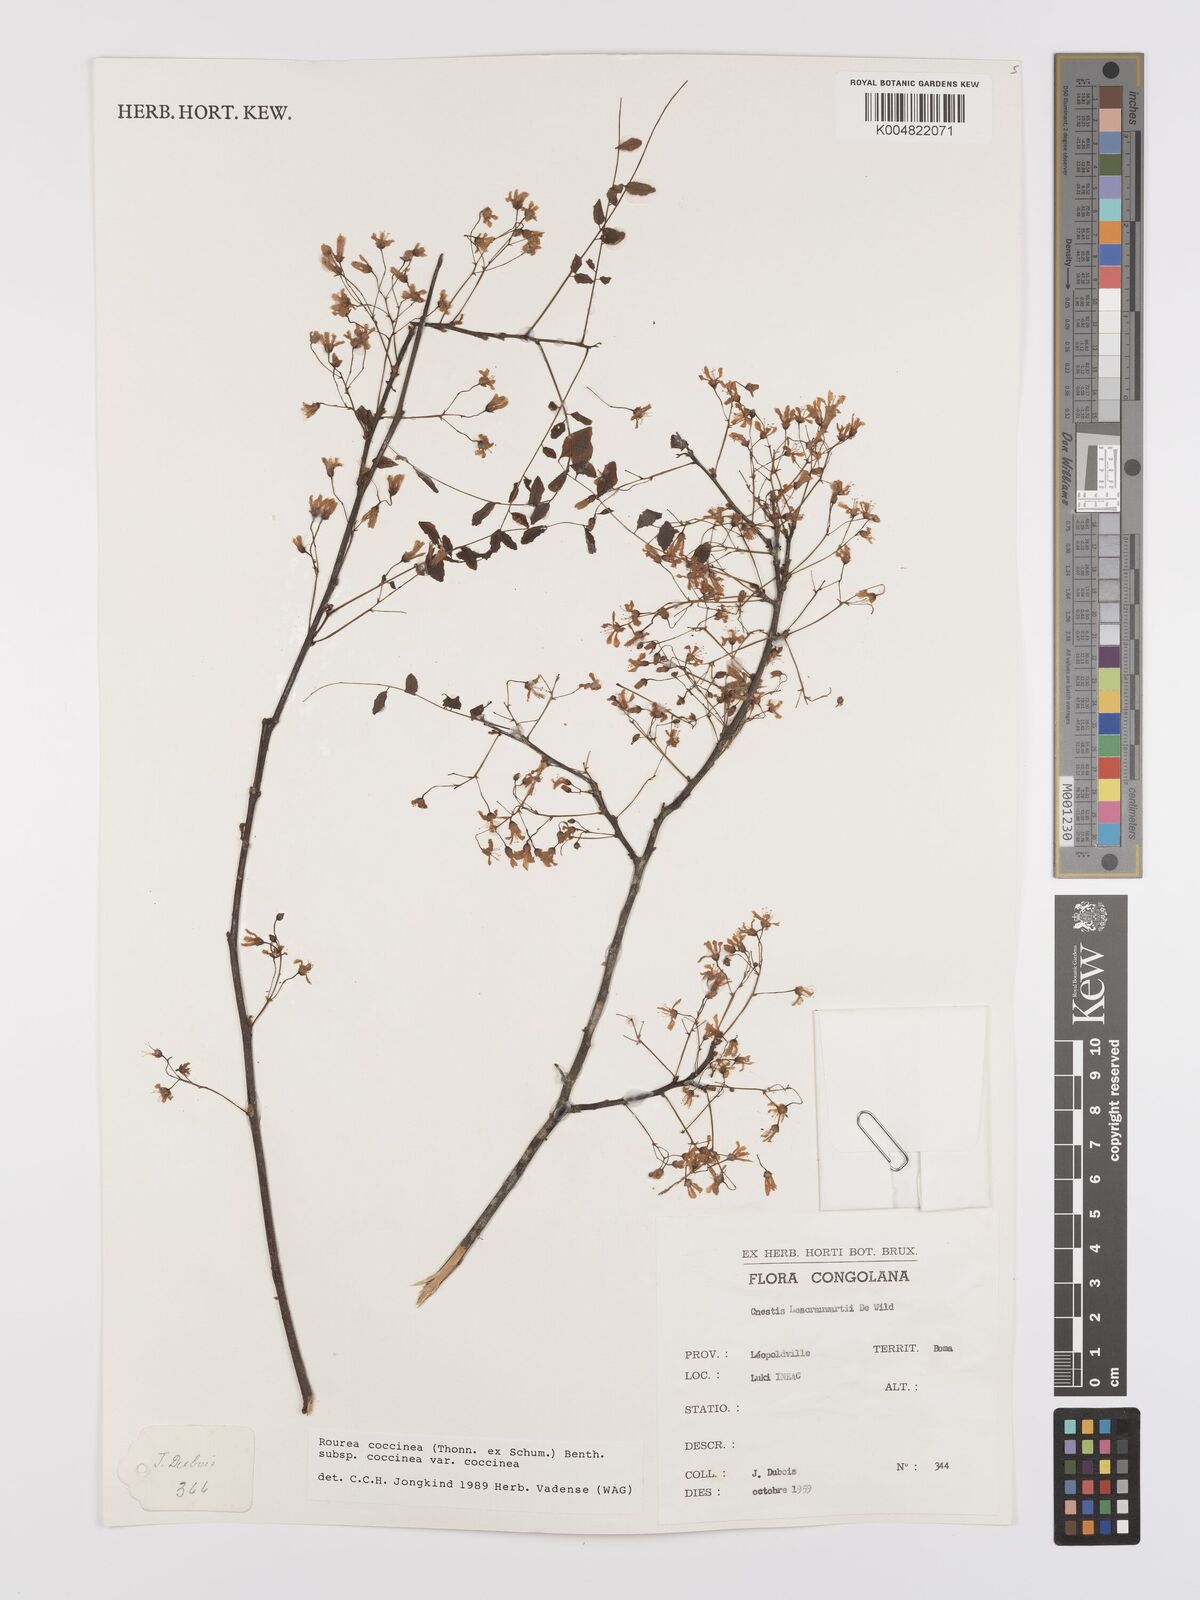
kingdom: Plantae
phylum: Tracheophyta
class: Magnoliopsida
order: Oxalidales
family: Connaraceae
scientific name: Connaraceae
